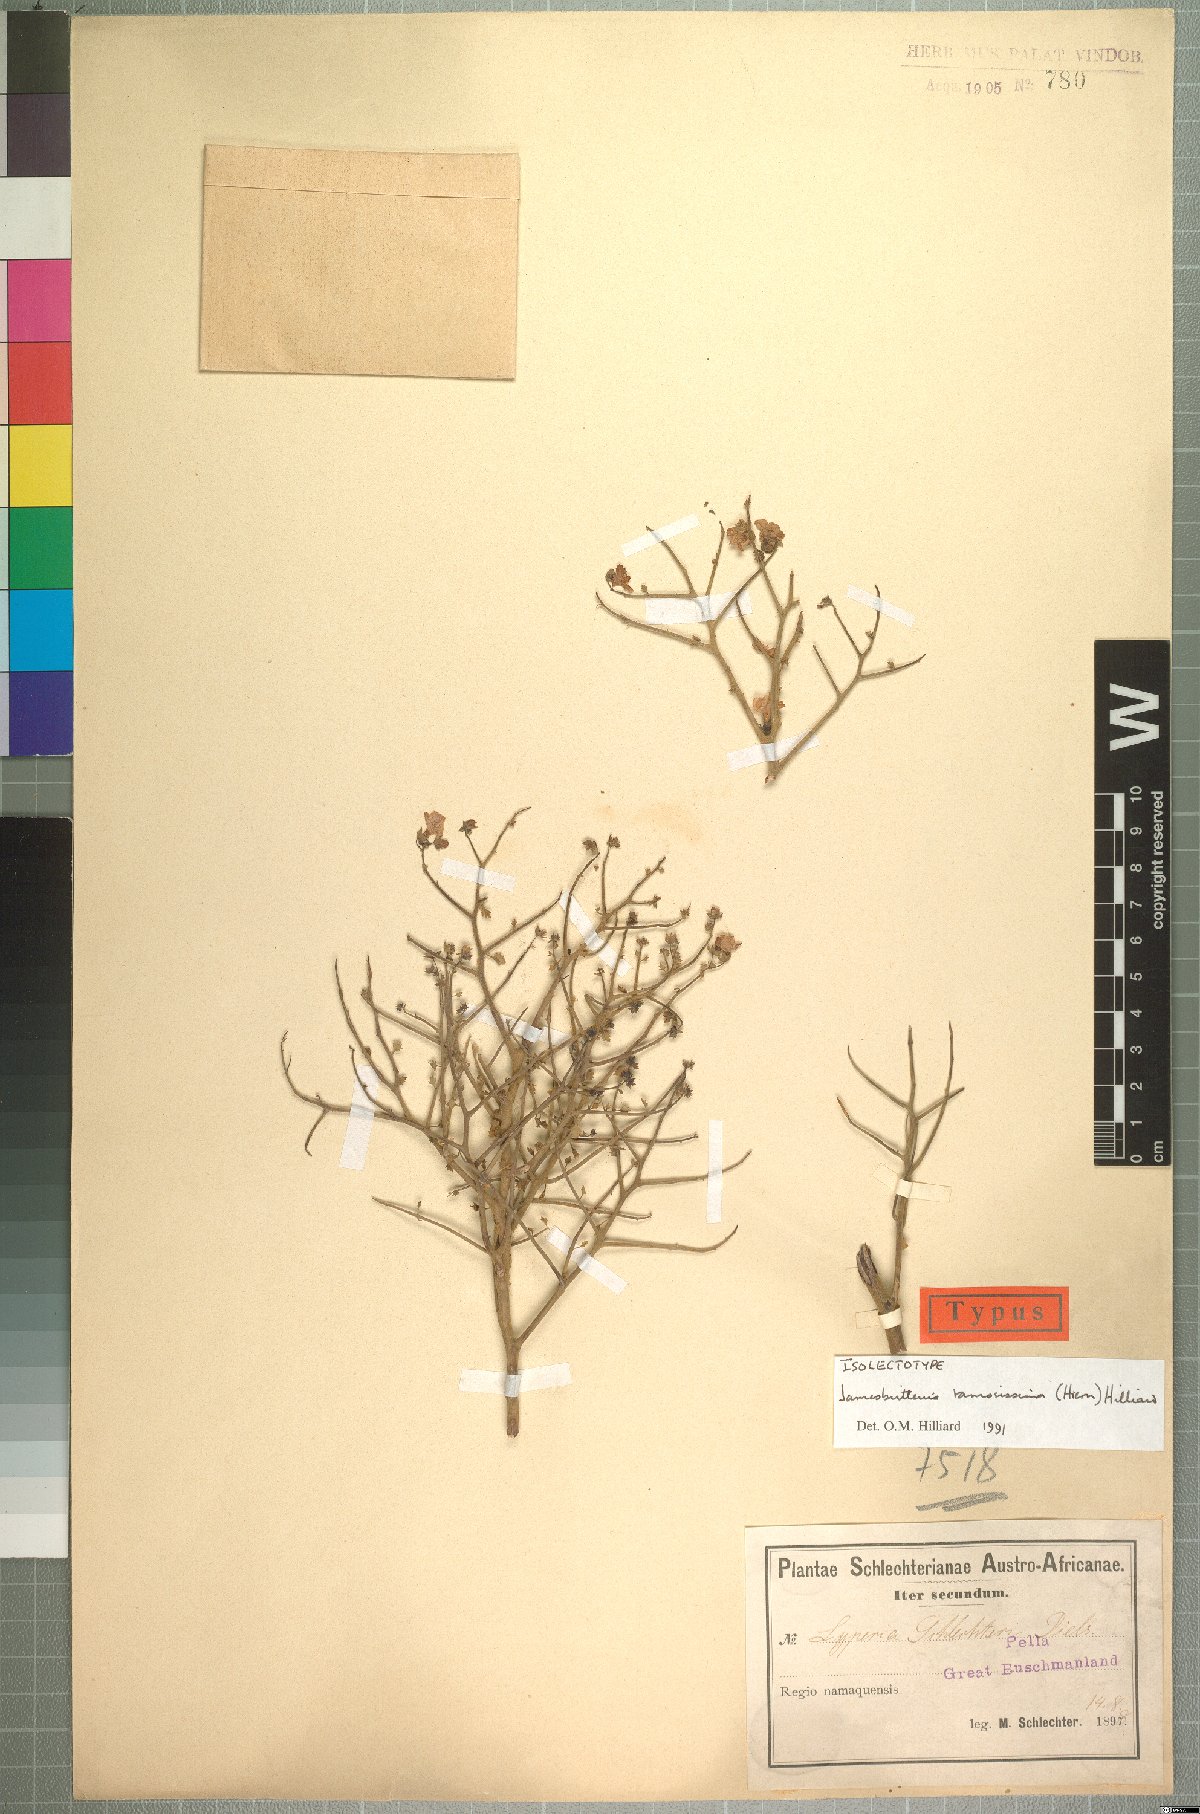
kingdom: Plantae
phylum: Tracheophyta
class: Magnoliopsida
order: Lamiales
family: Scrophulariaceae
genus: Jamesbrittenia
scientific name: Jamesbrittenia ramosissima
